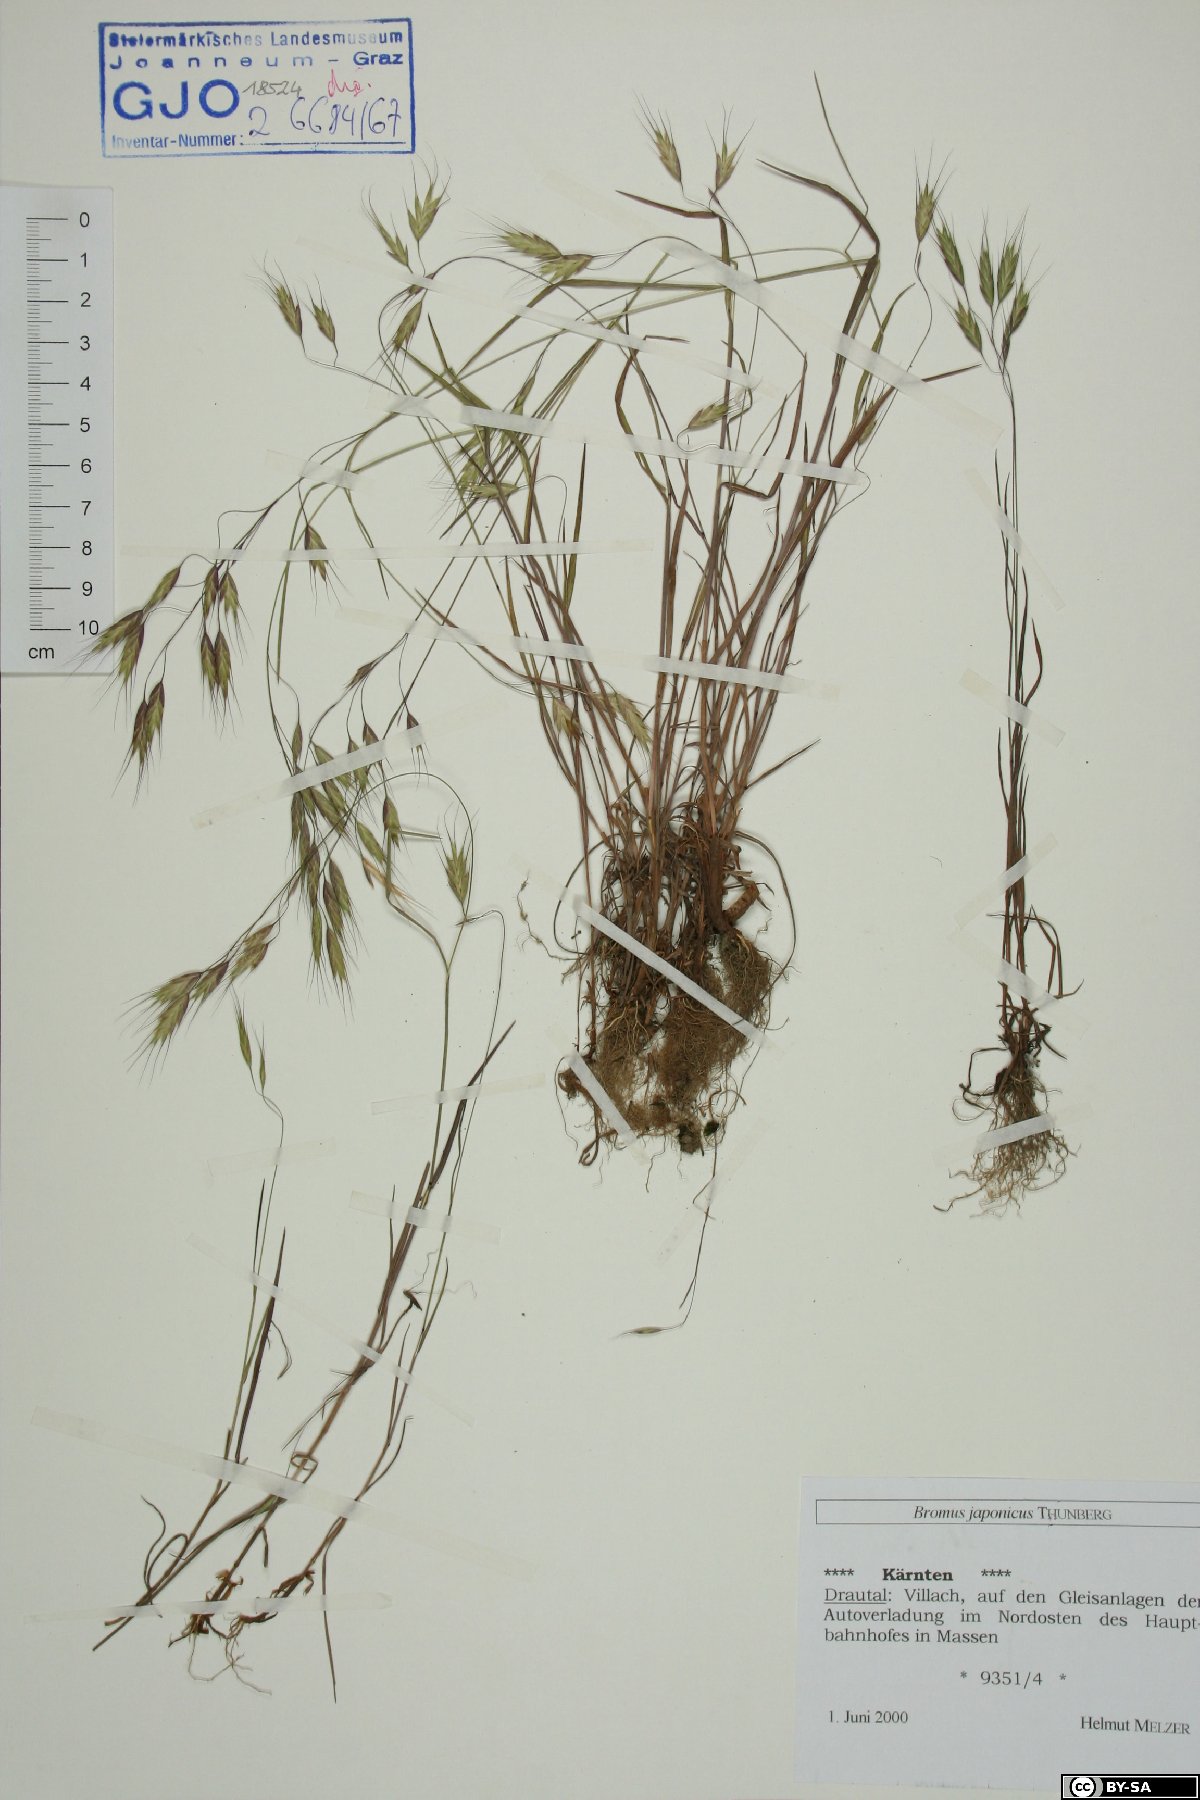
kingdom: Plantae
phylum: Tracheophyta
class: Liliopsida
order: Poales
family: Poaceae
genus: Bromus
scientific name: Bromus japonicus
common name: Japanese brome
